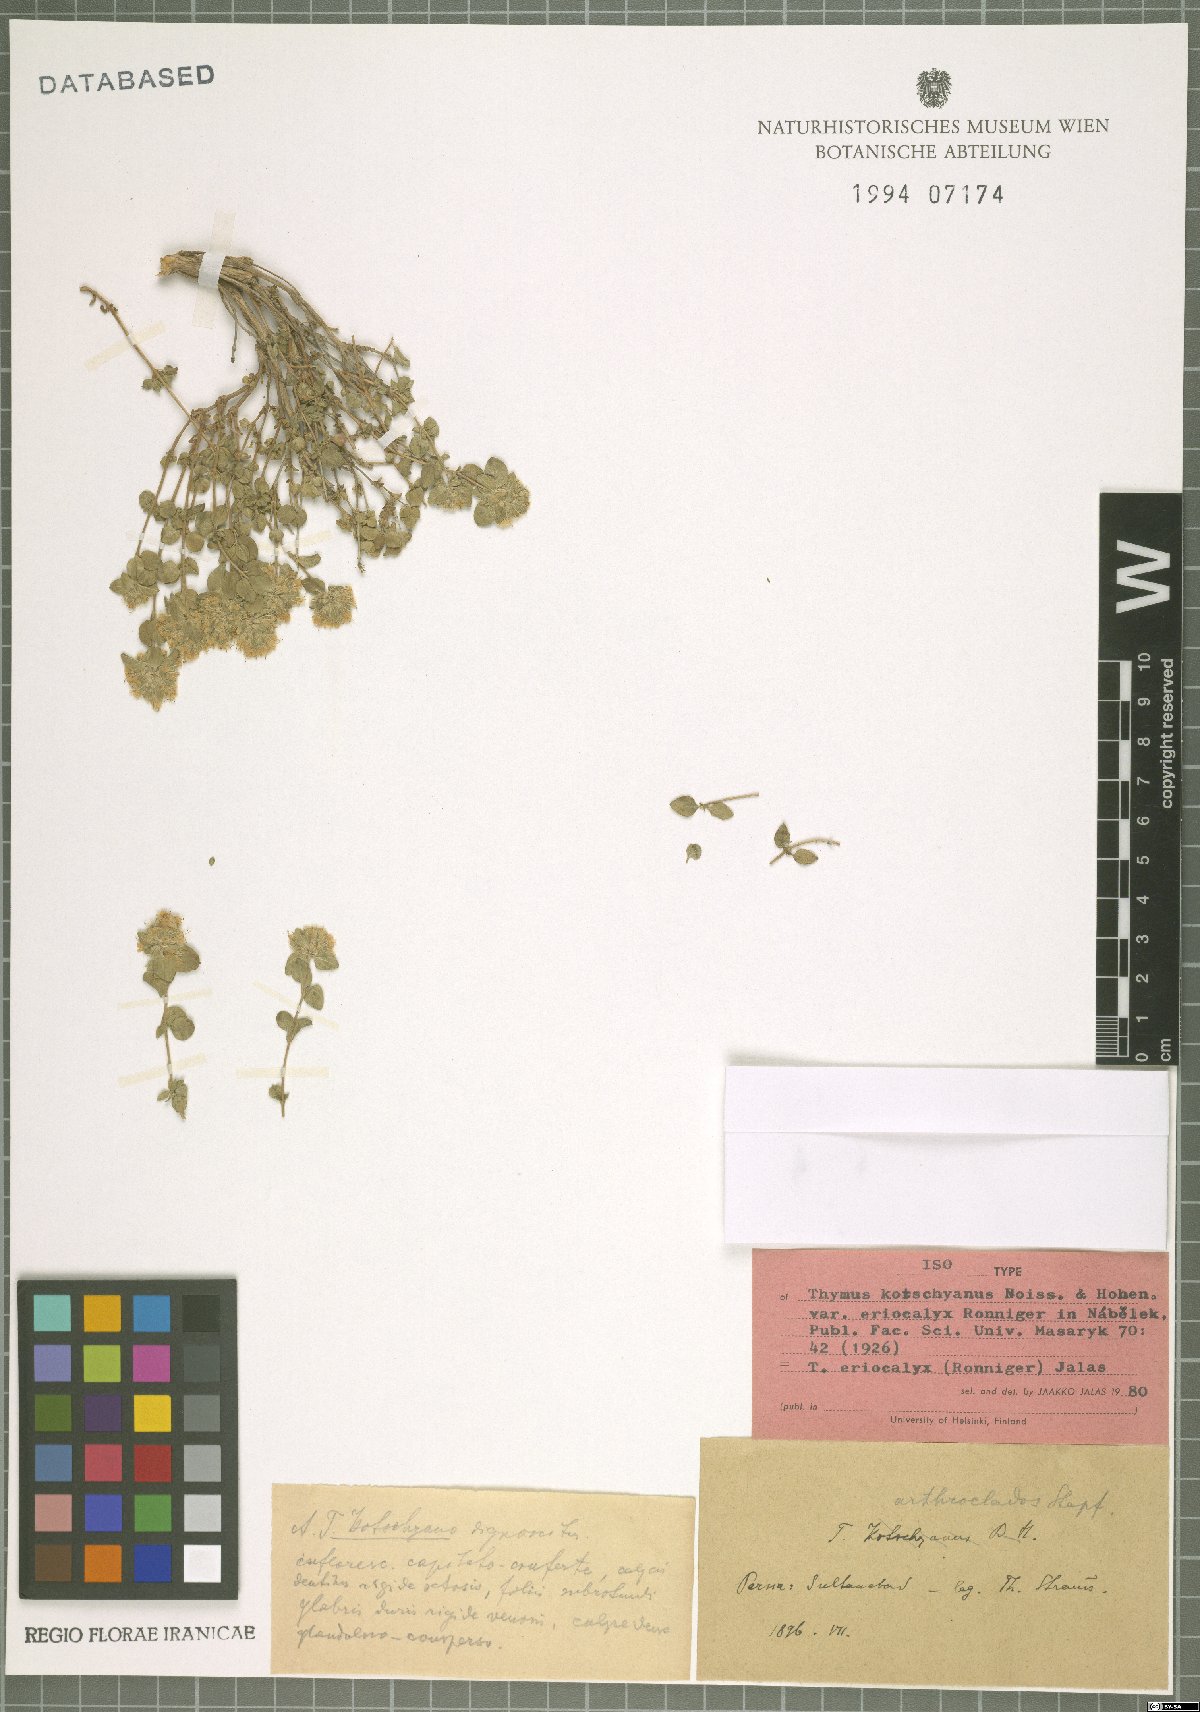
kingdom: Plantae
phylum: Tracheophyta
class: Magnoliopsida
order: Lamiales
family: Lamiaceae
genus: Thymus
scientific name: Thymus eriocalyx
